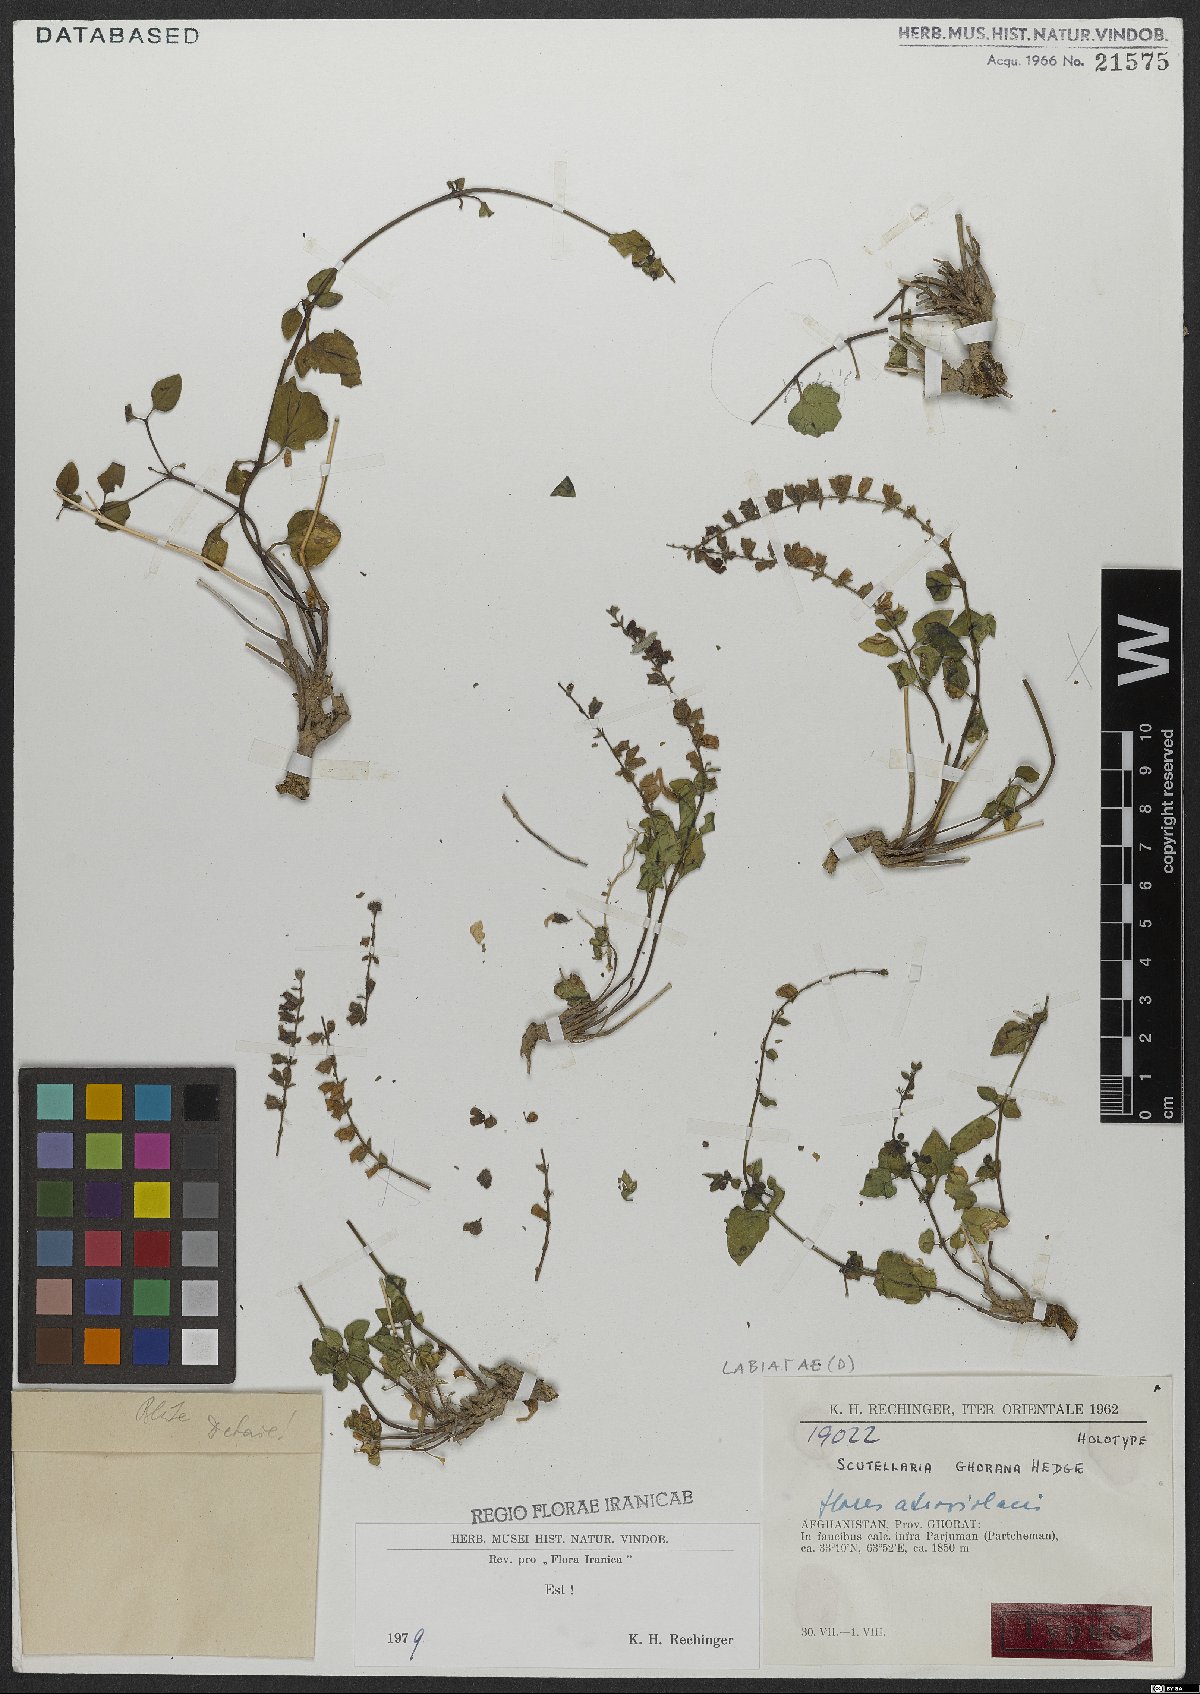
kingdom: Plantae
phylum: Tracheophyta
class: Magnoliopsida
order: Lamiales
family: Lamiaceae
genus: Scutellaria
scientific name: Scutellaria ghorana
